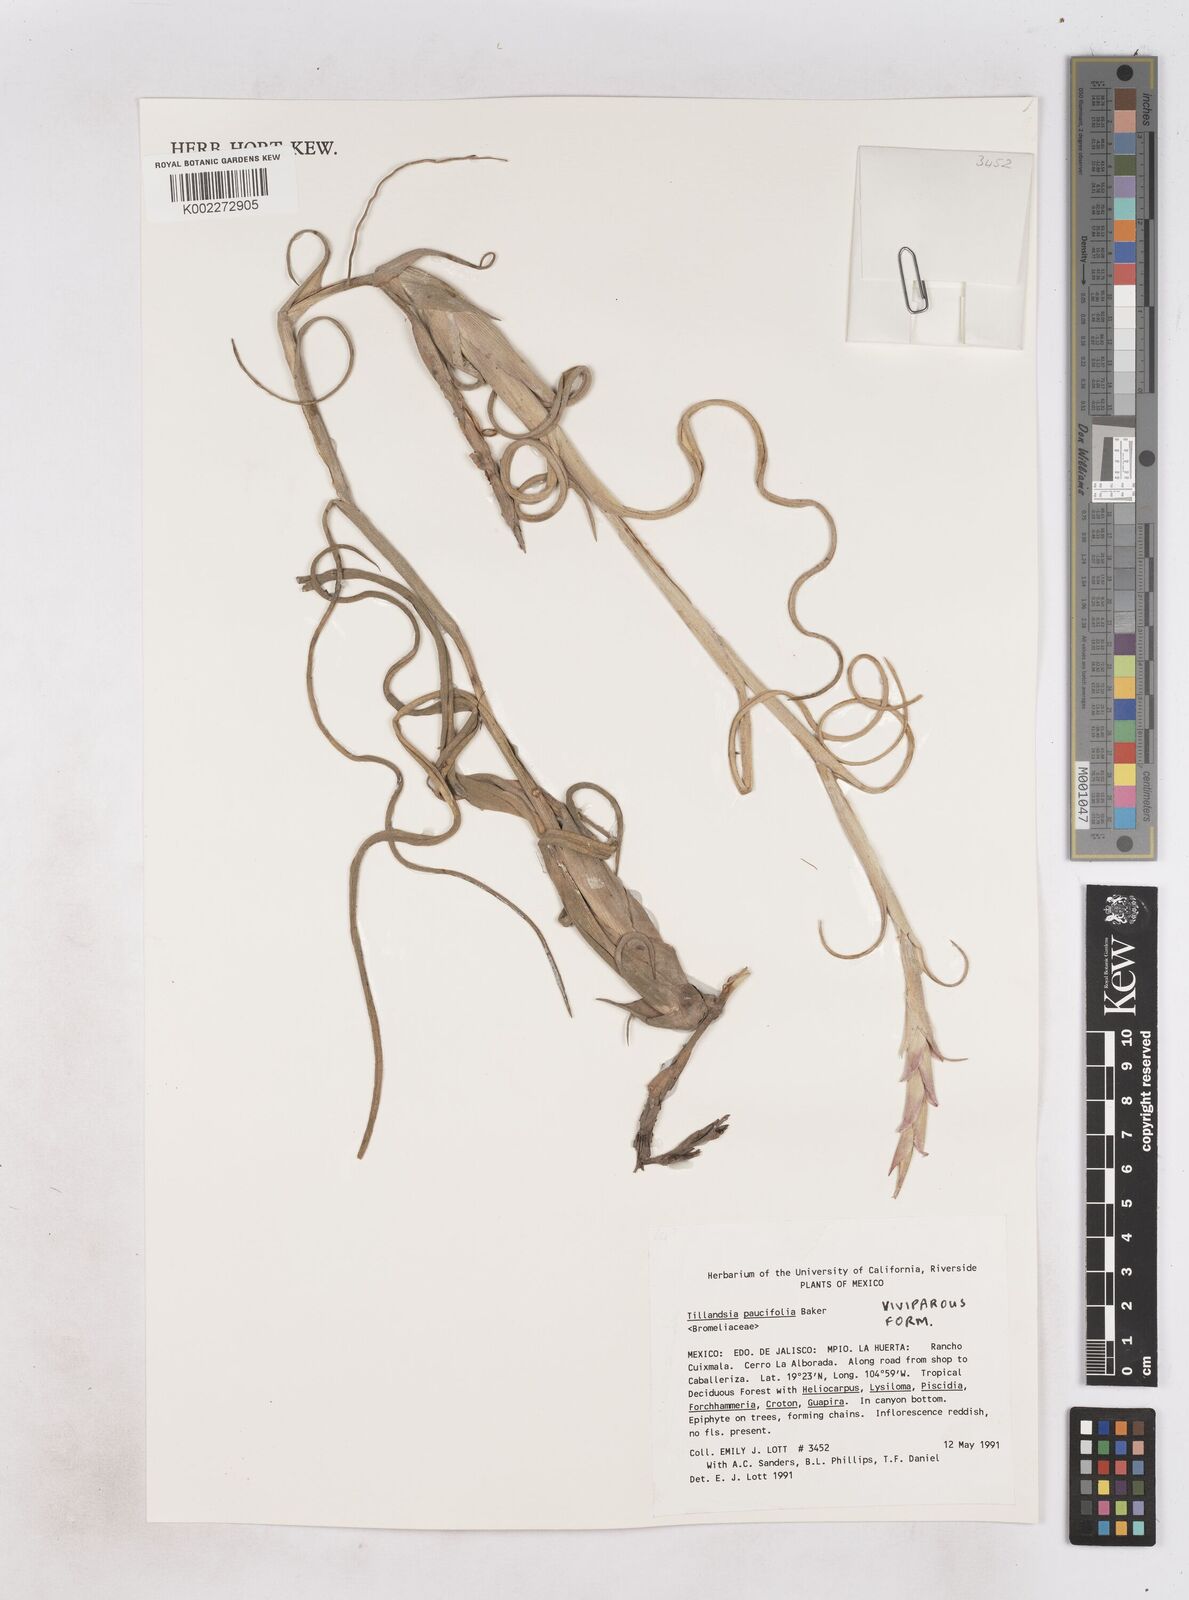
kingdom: Plantae
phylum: Tracheophyta
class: Liliopsida
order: Poales
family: Bromeliaceae
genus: Tillandsia
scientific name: Tillandsia paucifolia
